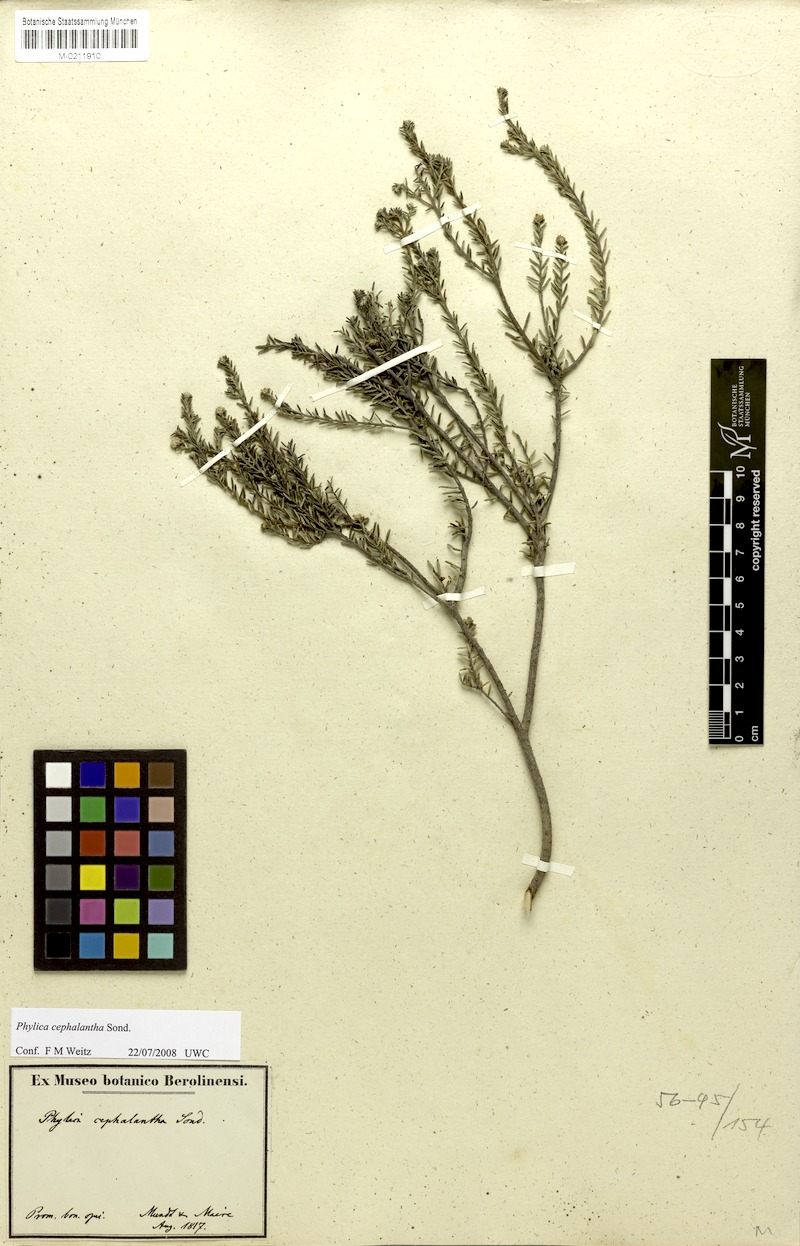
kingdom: Plantae
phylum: Tracheophyta
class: Magnoliopsida
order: Rosales
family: Rhamnaceae
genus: Phylica
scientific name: Phylica cephalantha
